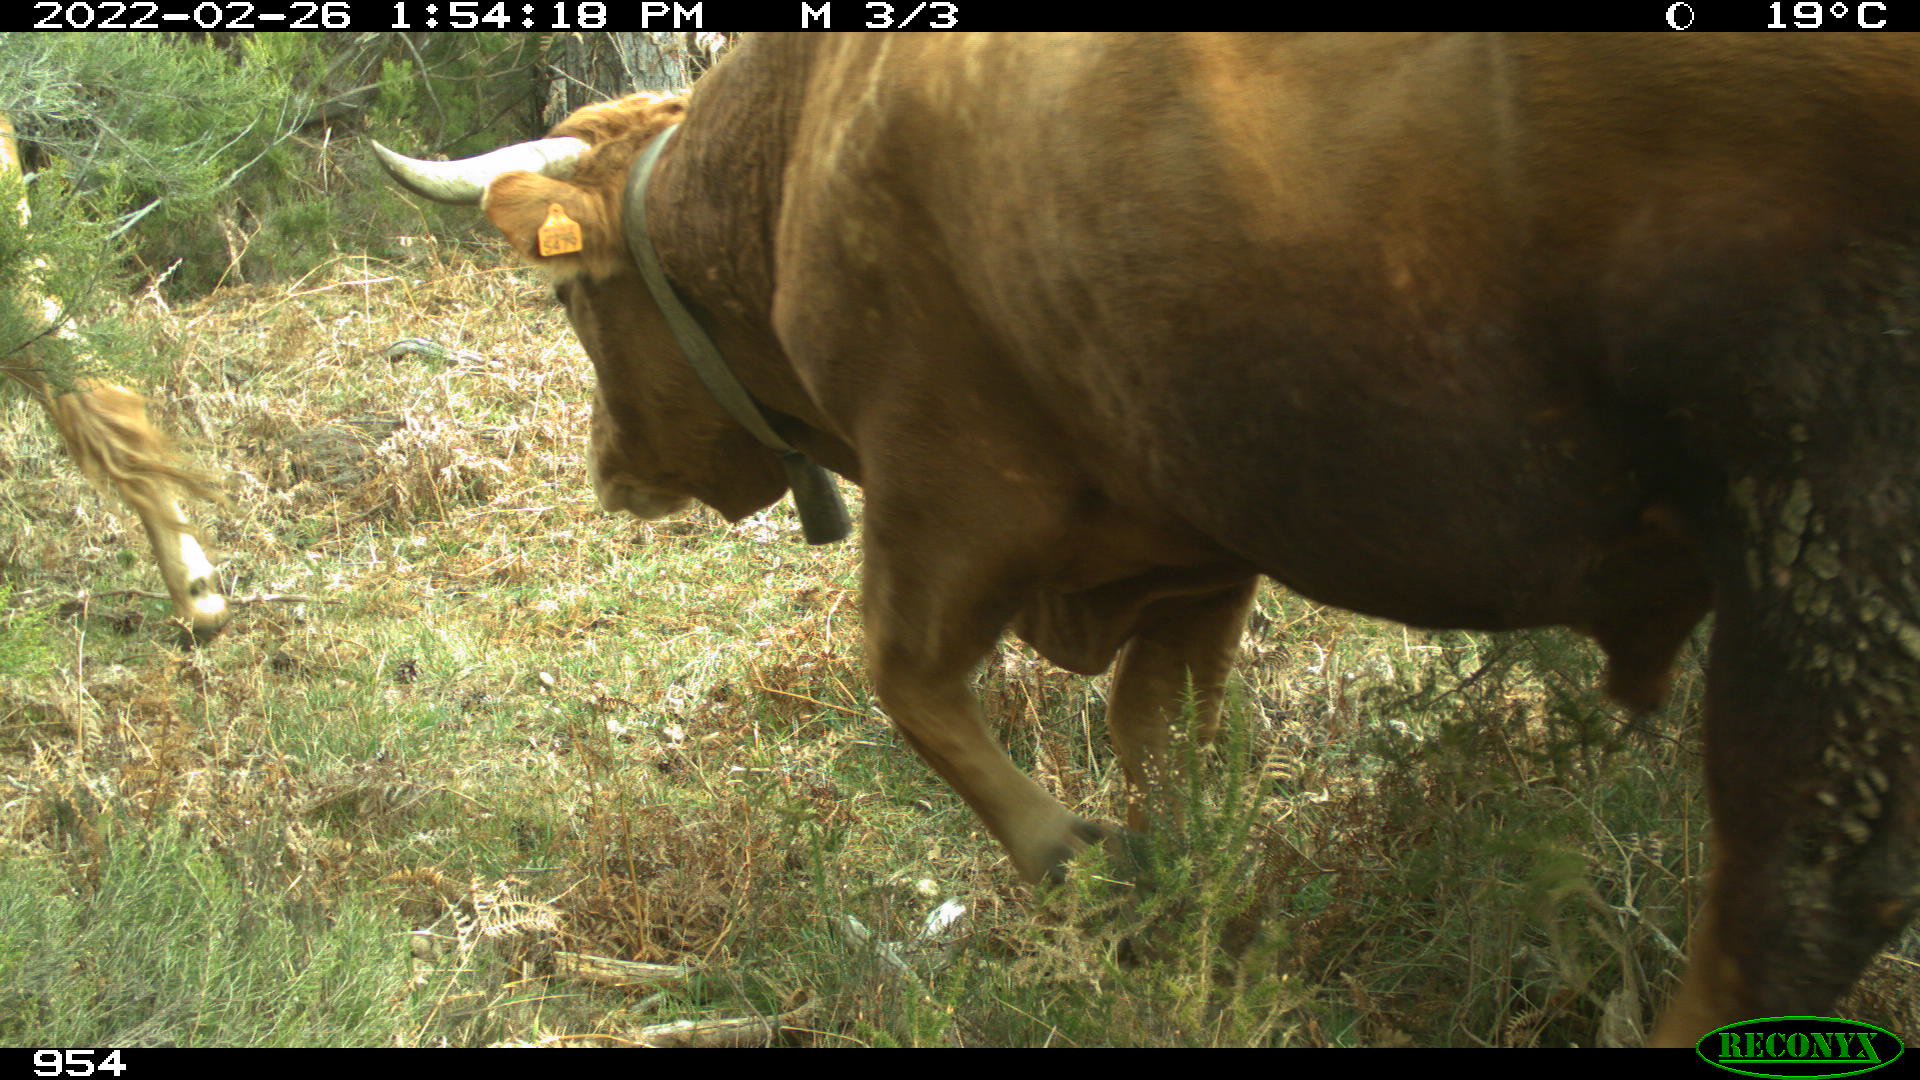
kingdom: Animalia
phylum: Chordata
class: Mammalia
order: Artiodactyla
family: Bovidae
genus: Bos
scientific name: Bos taurus
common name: Domesticated cattle
